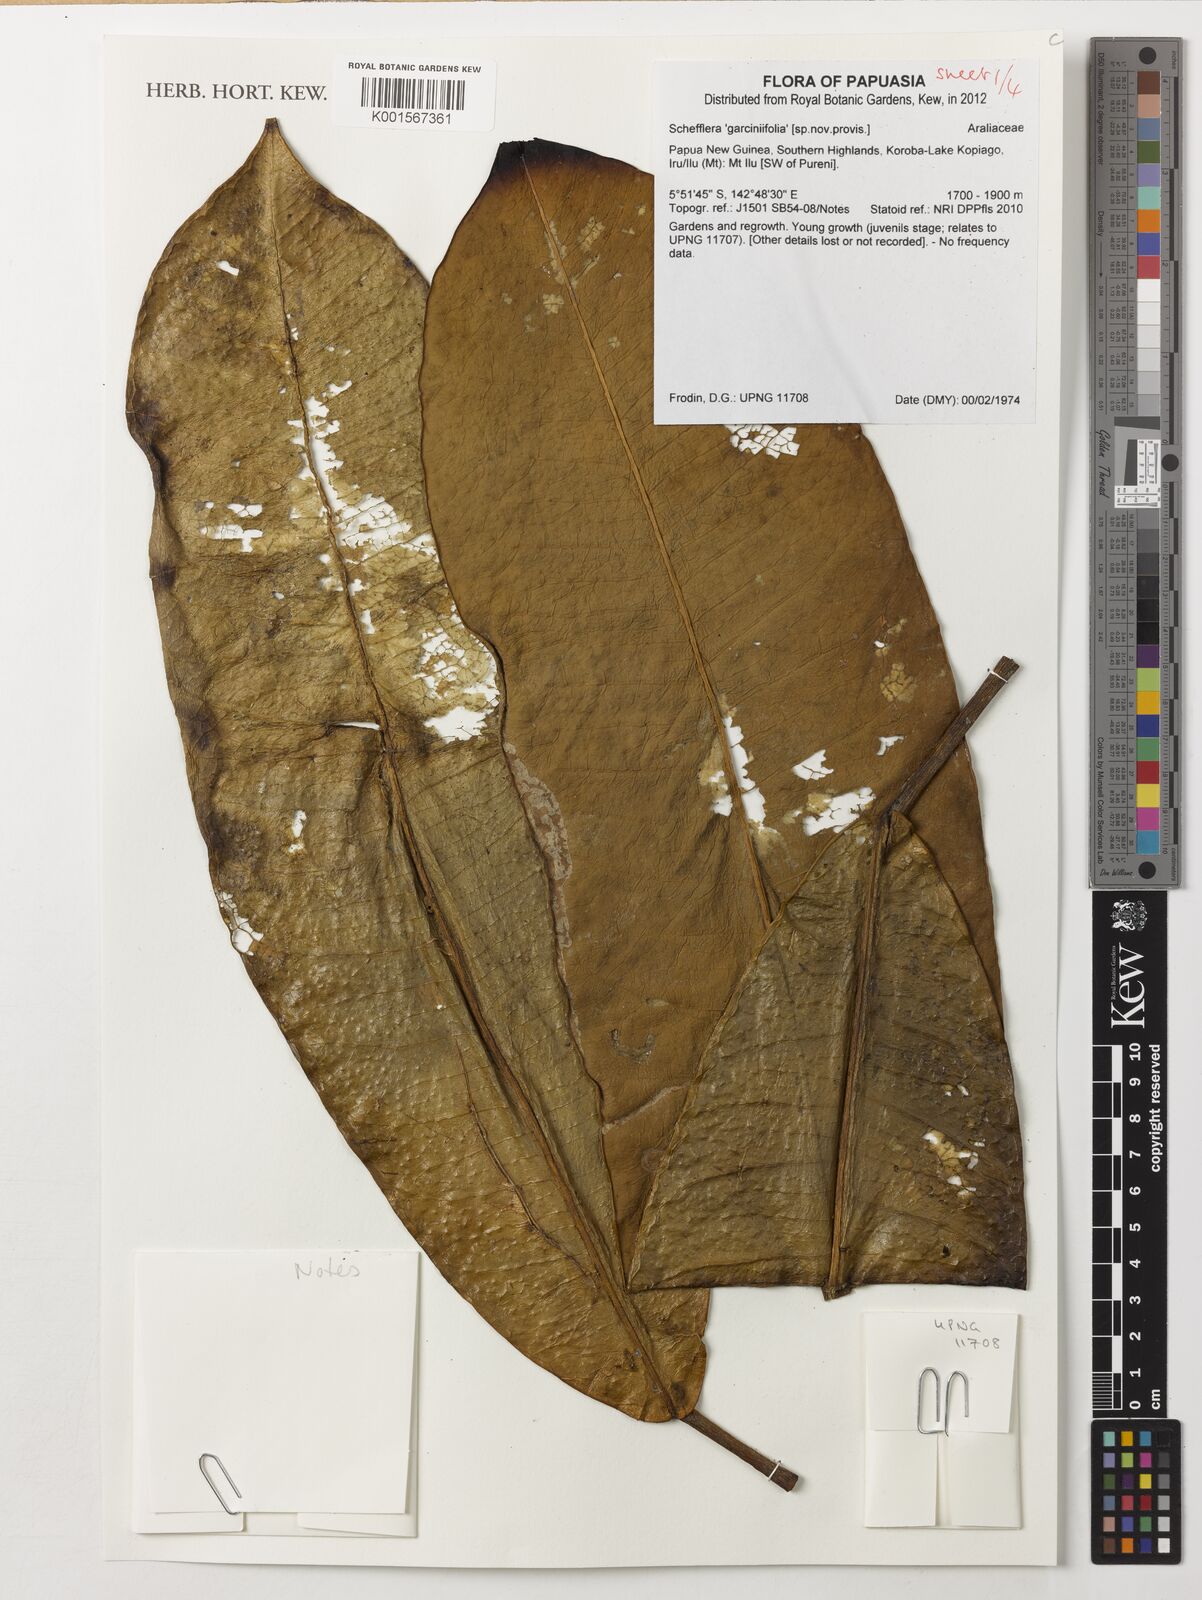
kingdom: Plantae
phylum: Tracheophyta
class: Magnoliopsida
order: Apiales
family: Araliaceae
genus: Schefflera
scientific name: Schefflera
